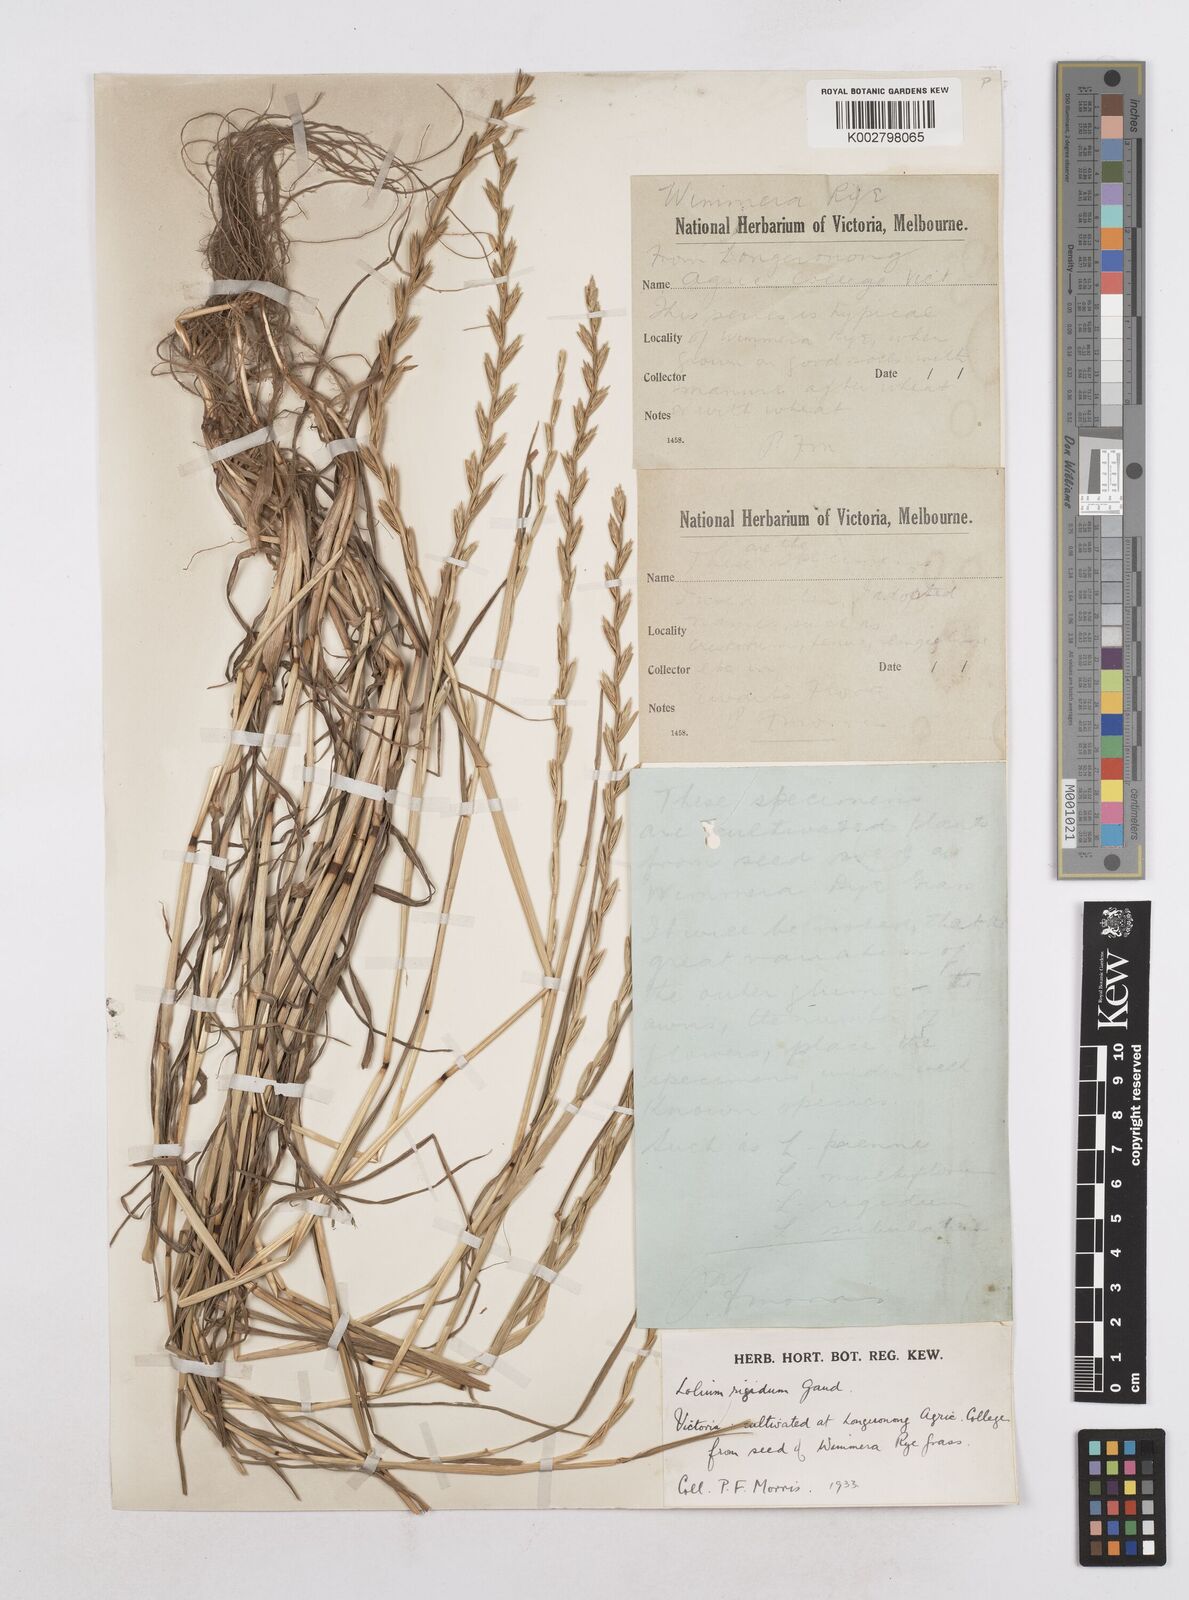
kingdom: Plantae
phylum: Tracheophyta
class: Liliopsida
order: Poales
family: Poaceae
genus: Lolium
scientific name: Lolium rigidum
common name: Wimmera ryegrass
